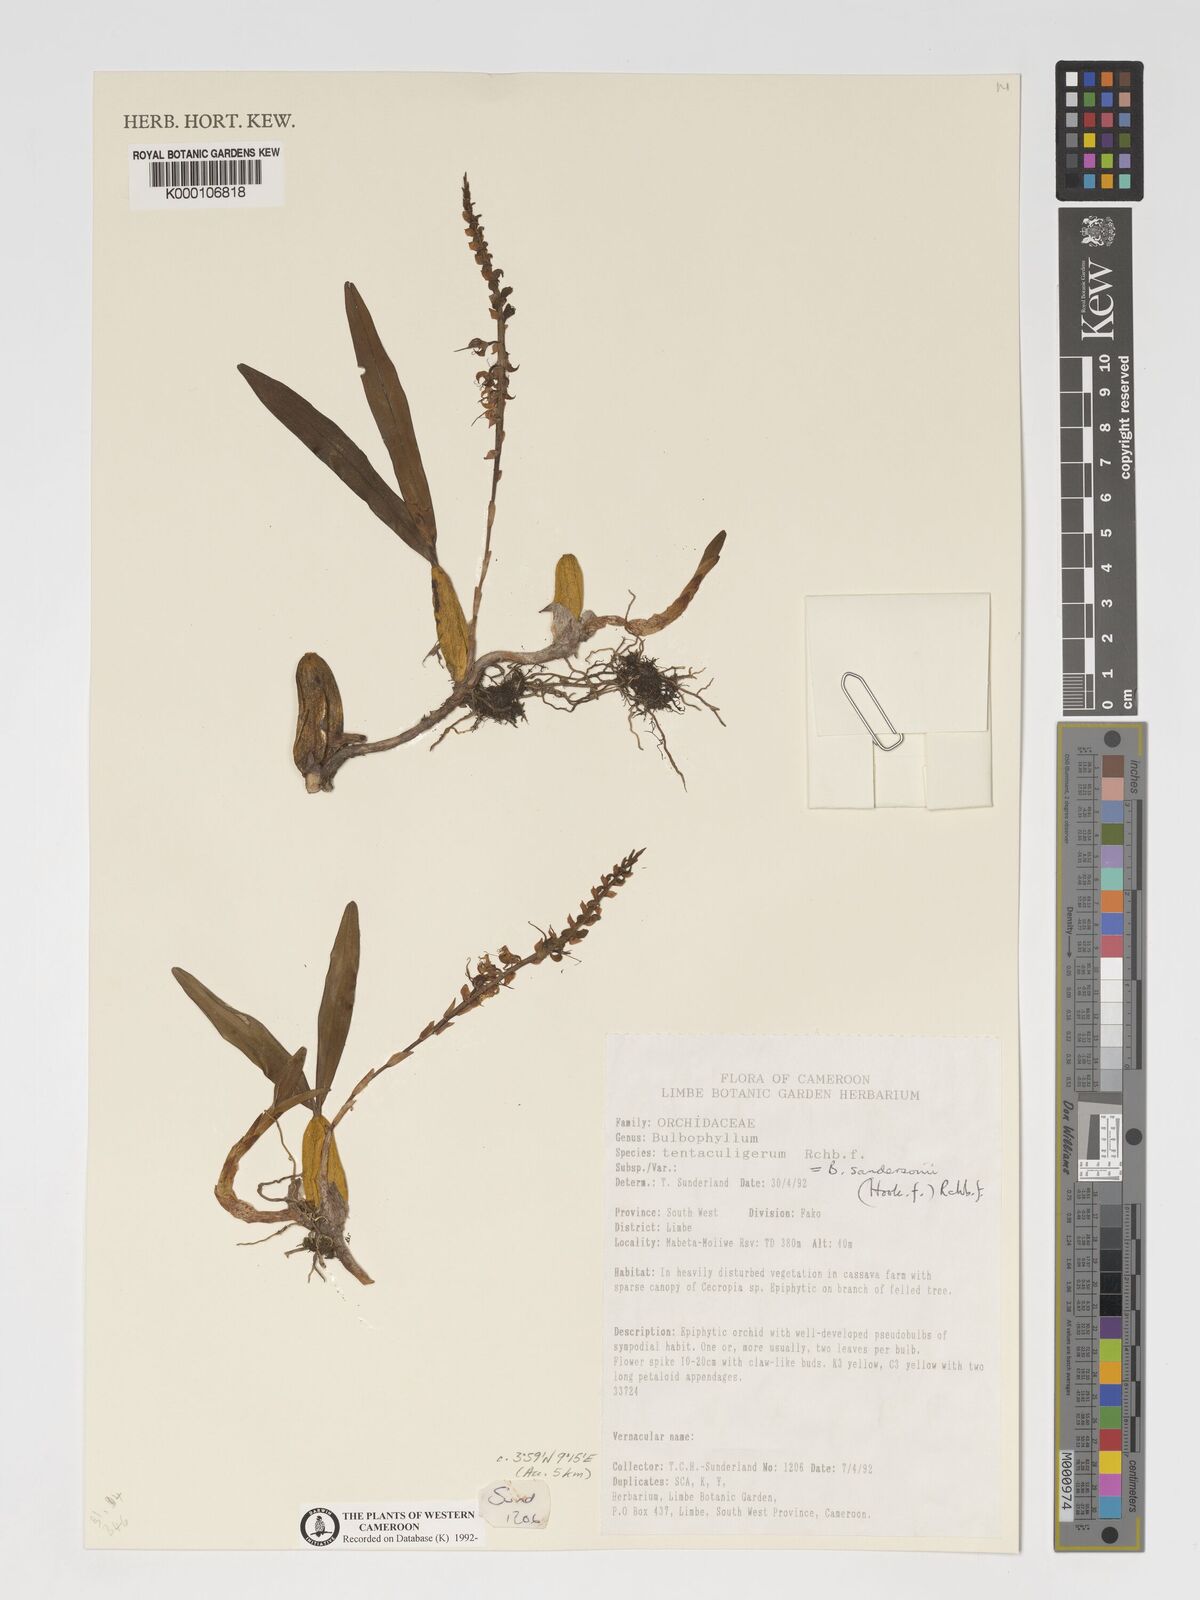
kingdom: Plantae
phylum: Tracheophyta
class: Liliopsida
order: Asparagales
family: Orchidaceae
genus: Bulbophyllum
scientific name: Bulbophyllum sandersonii
